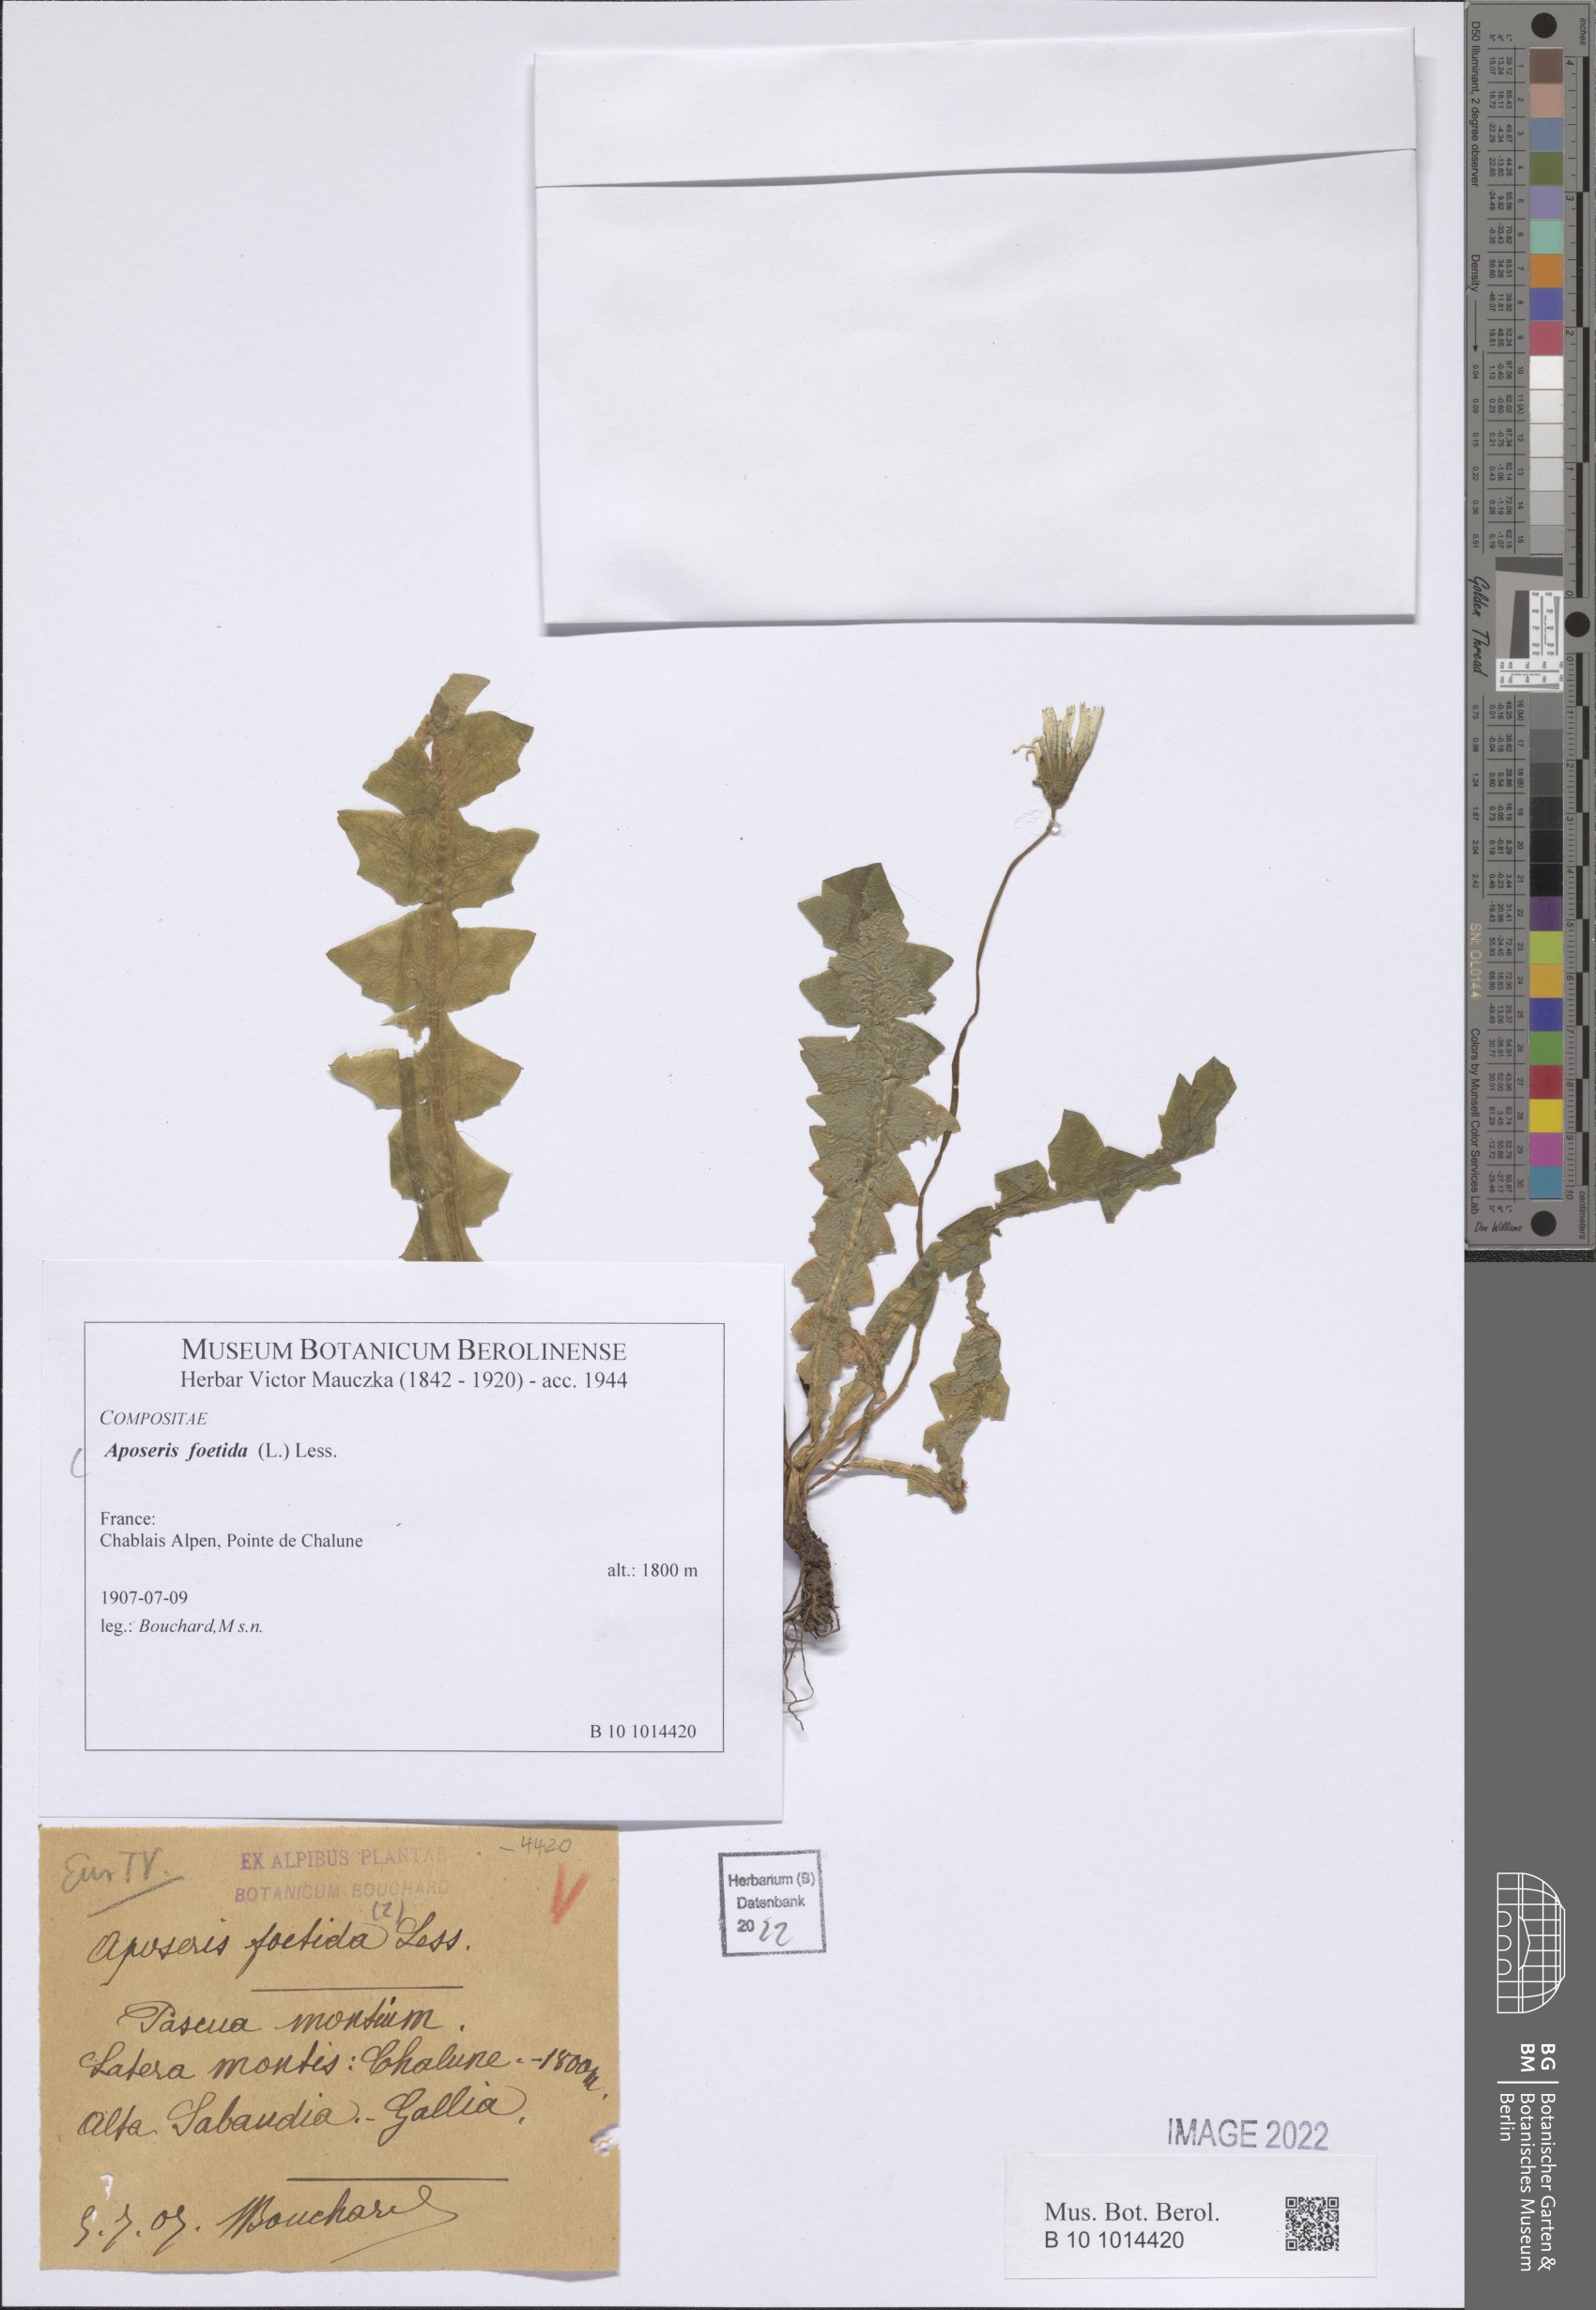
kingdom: Plantae
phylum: Tracheophyta
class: Magnoliopsida
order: Asterales
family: Asteraceae
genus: Aposeris
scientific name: Aposeris foetida
